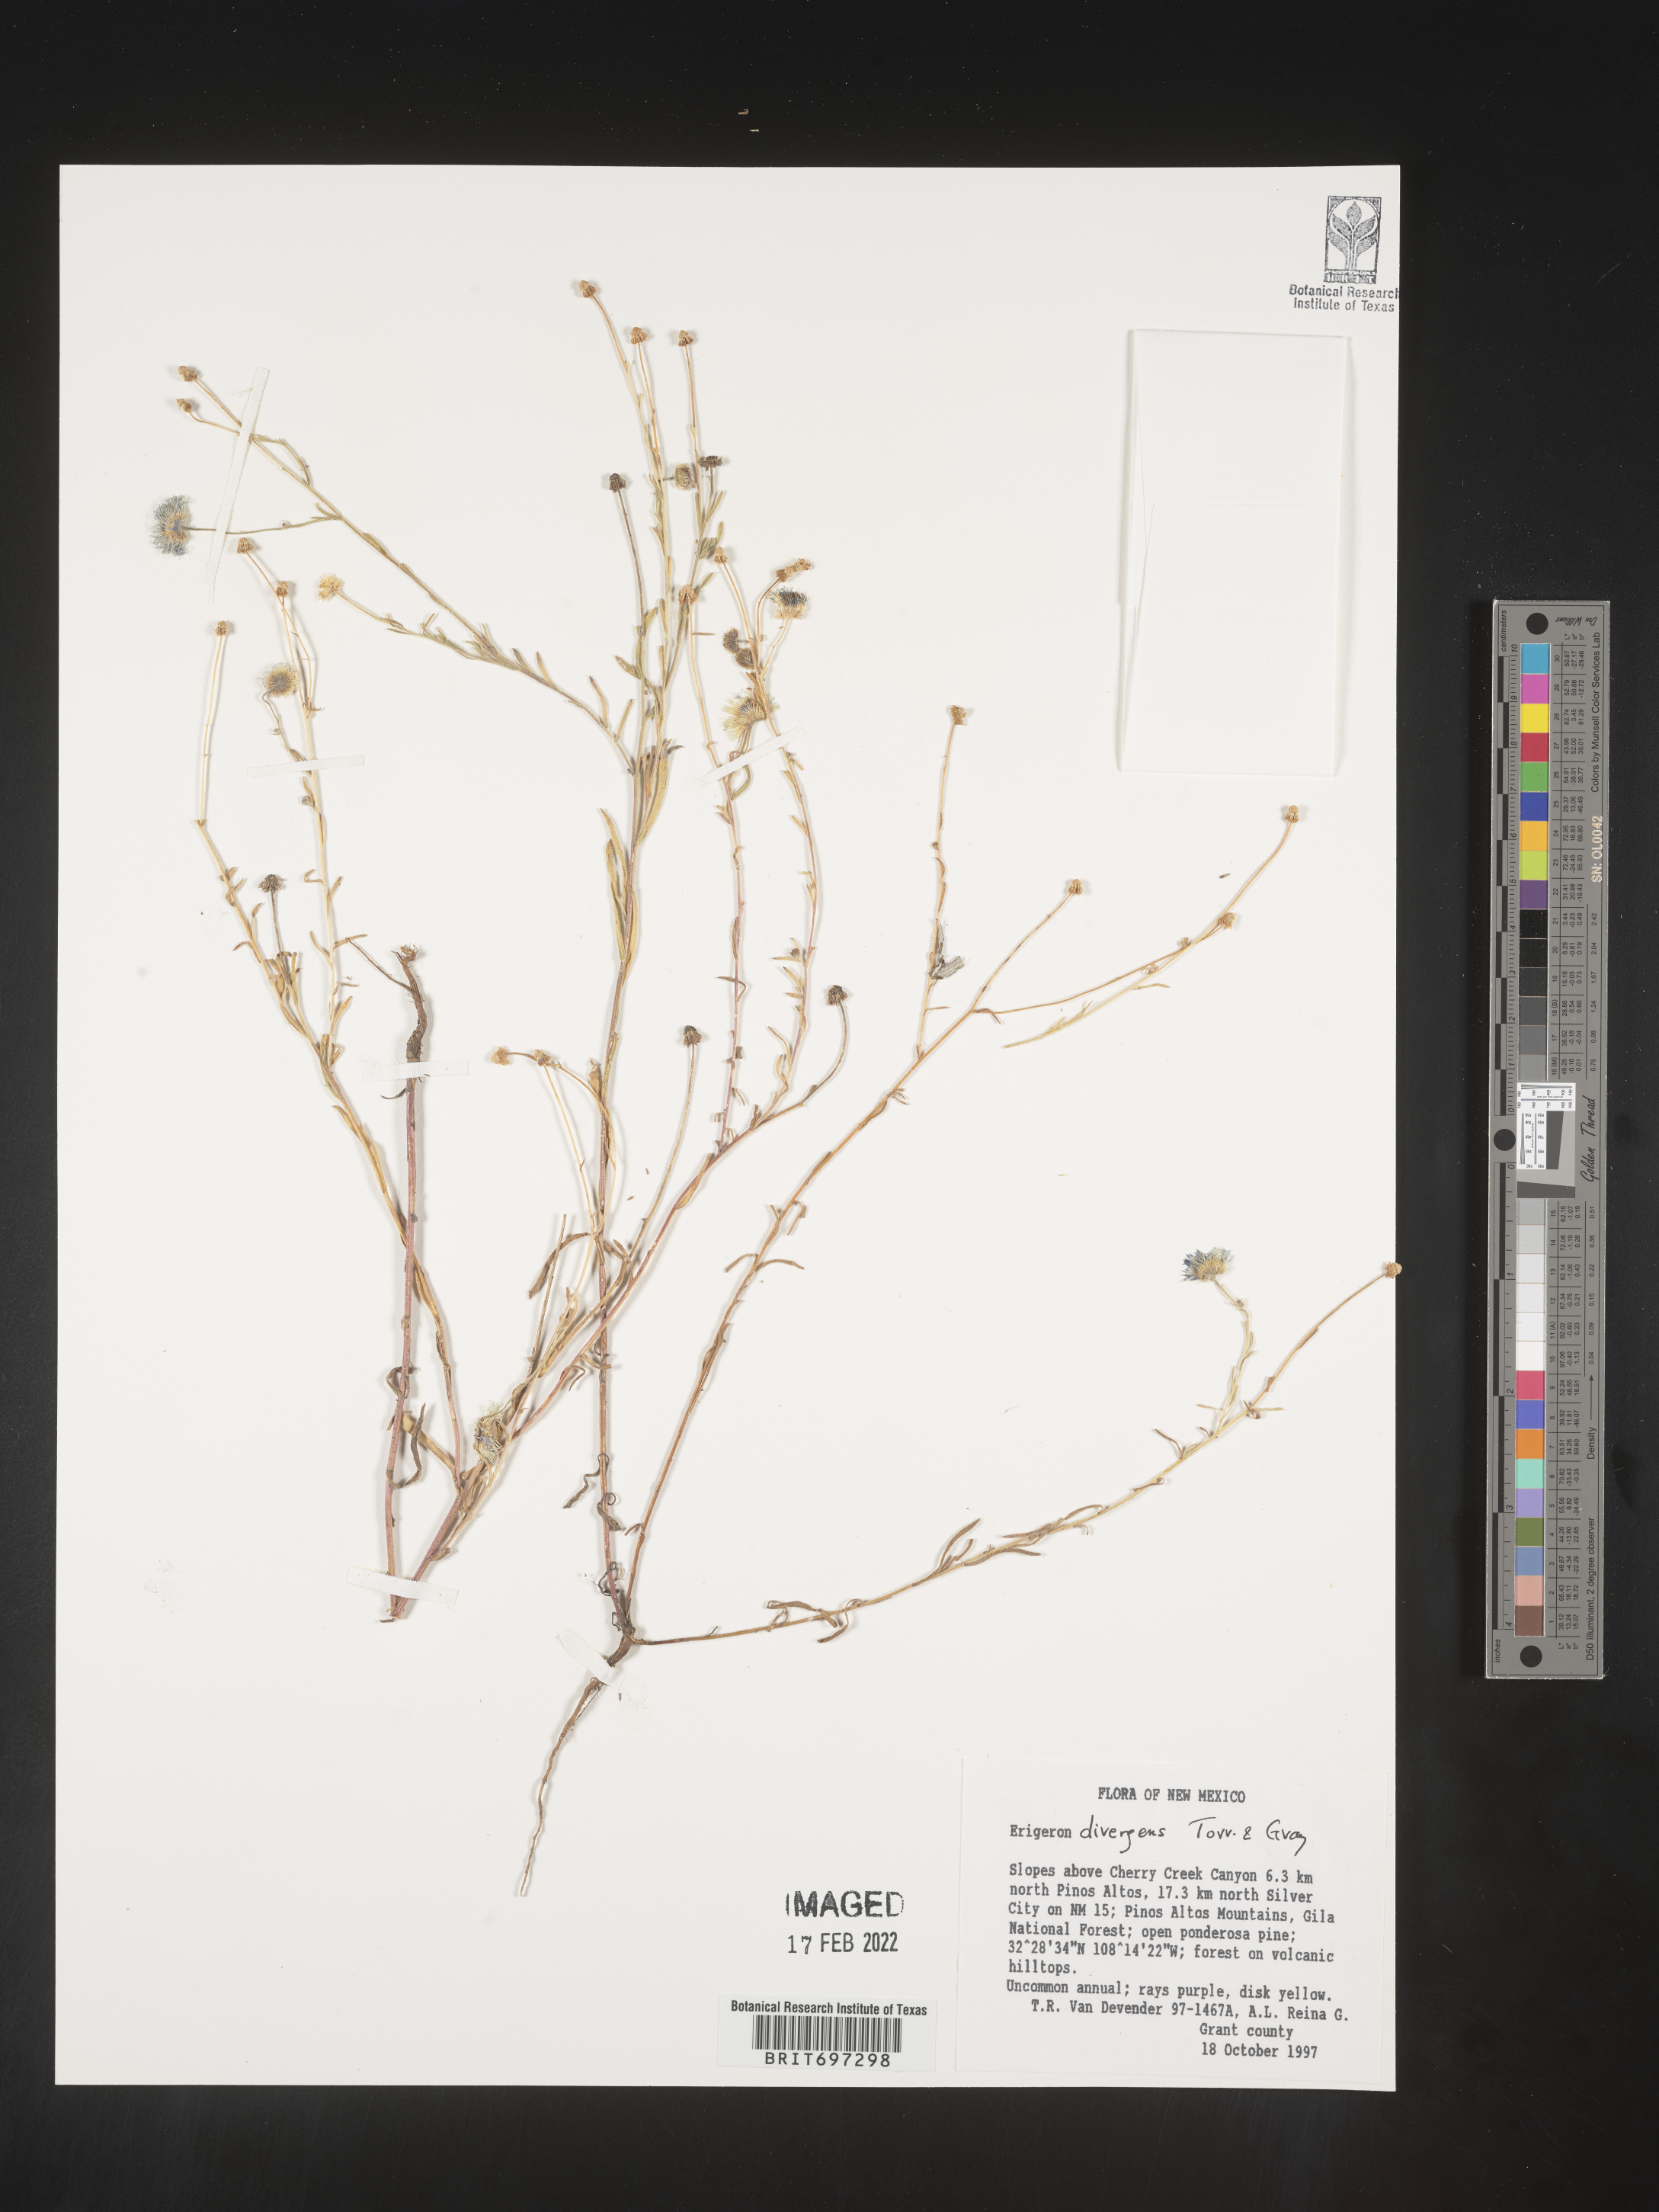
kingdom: Plantae
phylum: Tracheophyta
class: Magnoliopsida
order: Asterales
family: Asteraceae
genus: Erigeron
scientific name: Erigeron divergens
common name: Diffuse fleabane
